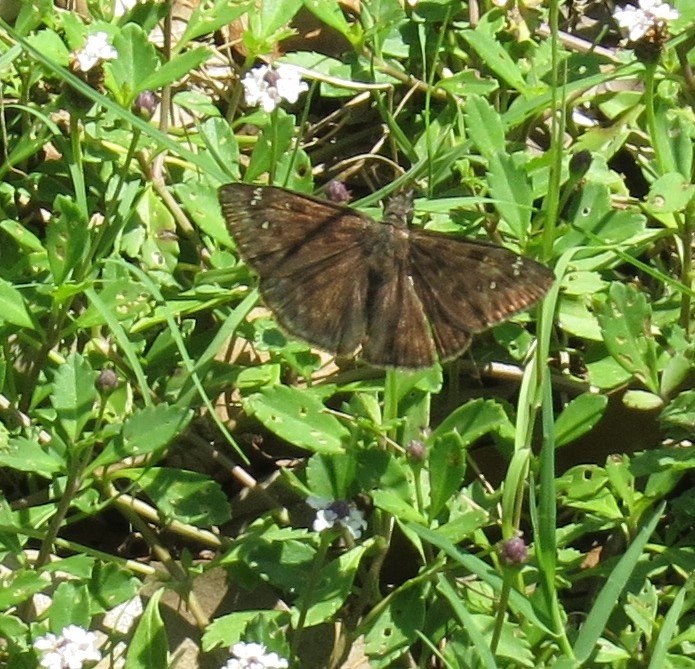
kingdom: Animalia
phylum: Arthropoda
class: Insecta
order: Lepidoptera
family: Hesperiidae
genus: Gesta
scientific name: Gesta
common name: Horace's Duskywing
